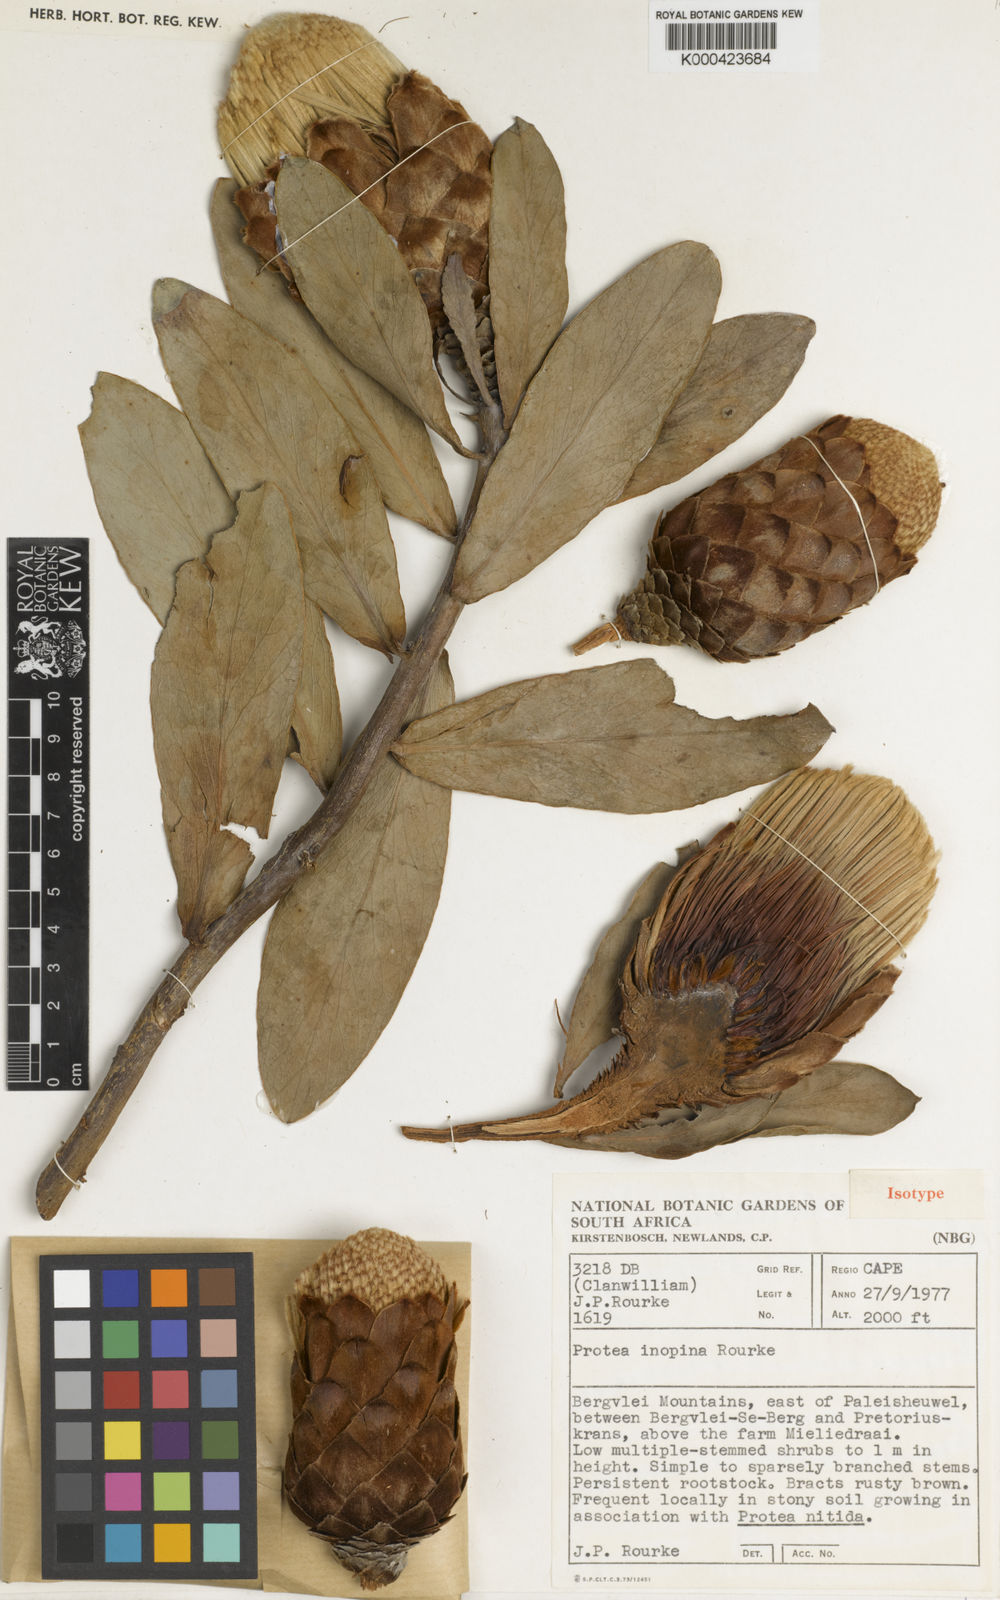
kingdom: Plantae
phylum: Tracheophyta
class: Magnoliopsida
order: Proteales
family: Proteaceae
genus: Protea
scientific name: Protea inopina
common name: Large-nut sugarbush
